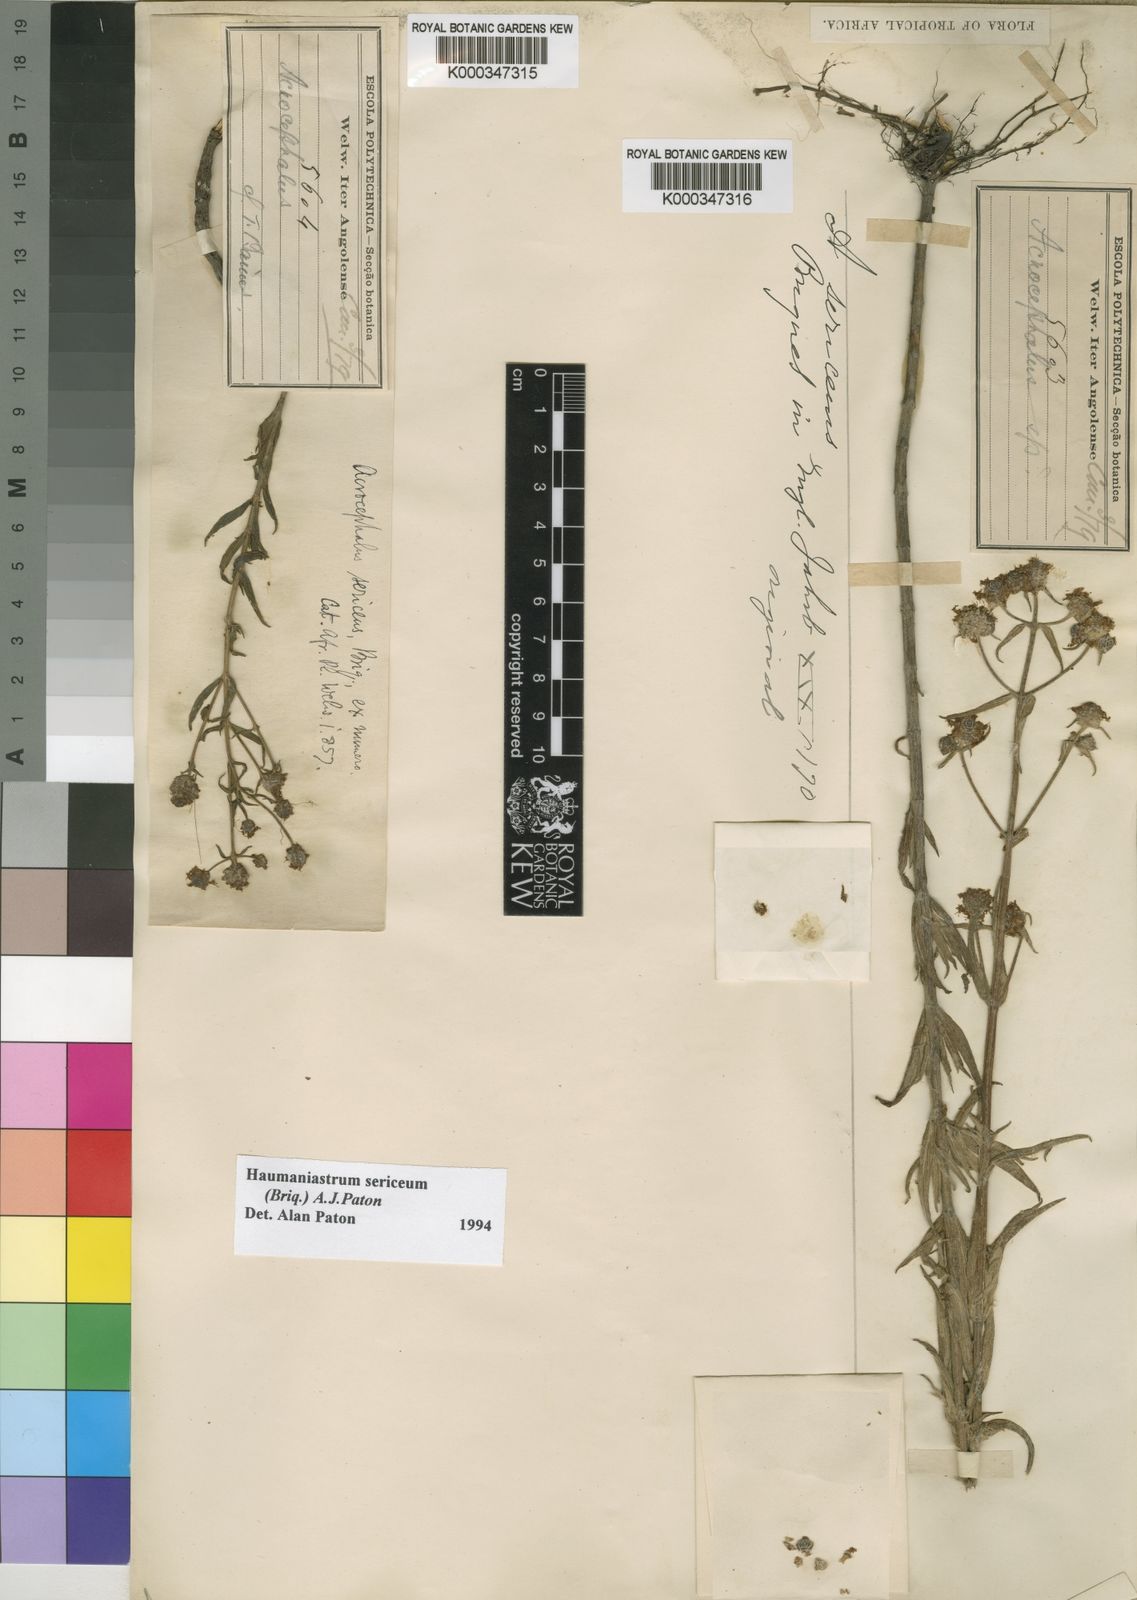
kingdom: Plantae
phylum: Tracheophyta
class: Magnoliopsida
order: Lamiales
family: Lamiaceae
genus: Haumaniastrum
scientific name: Haumaniastrum sericeum
